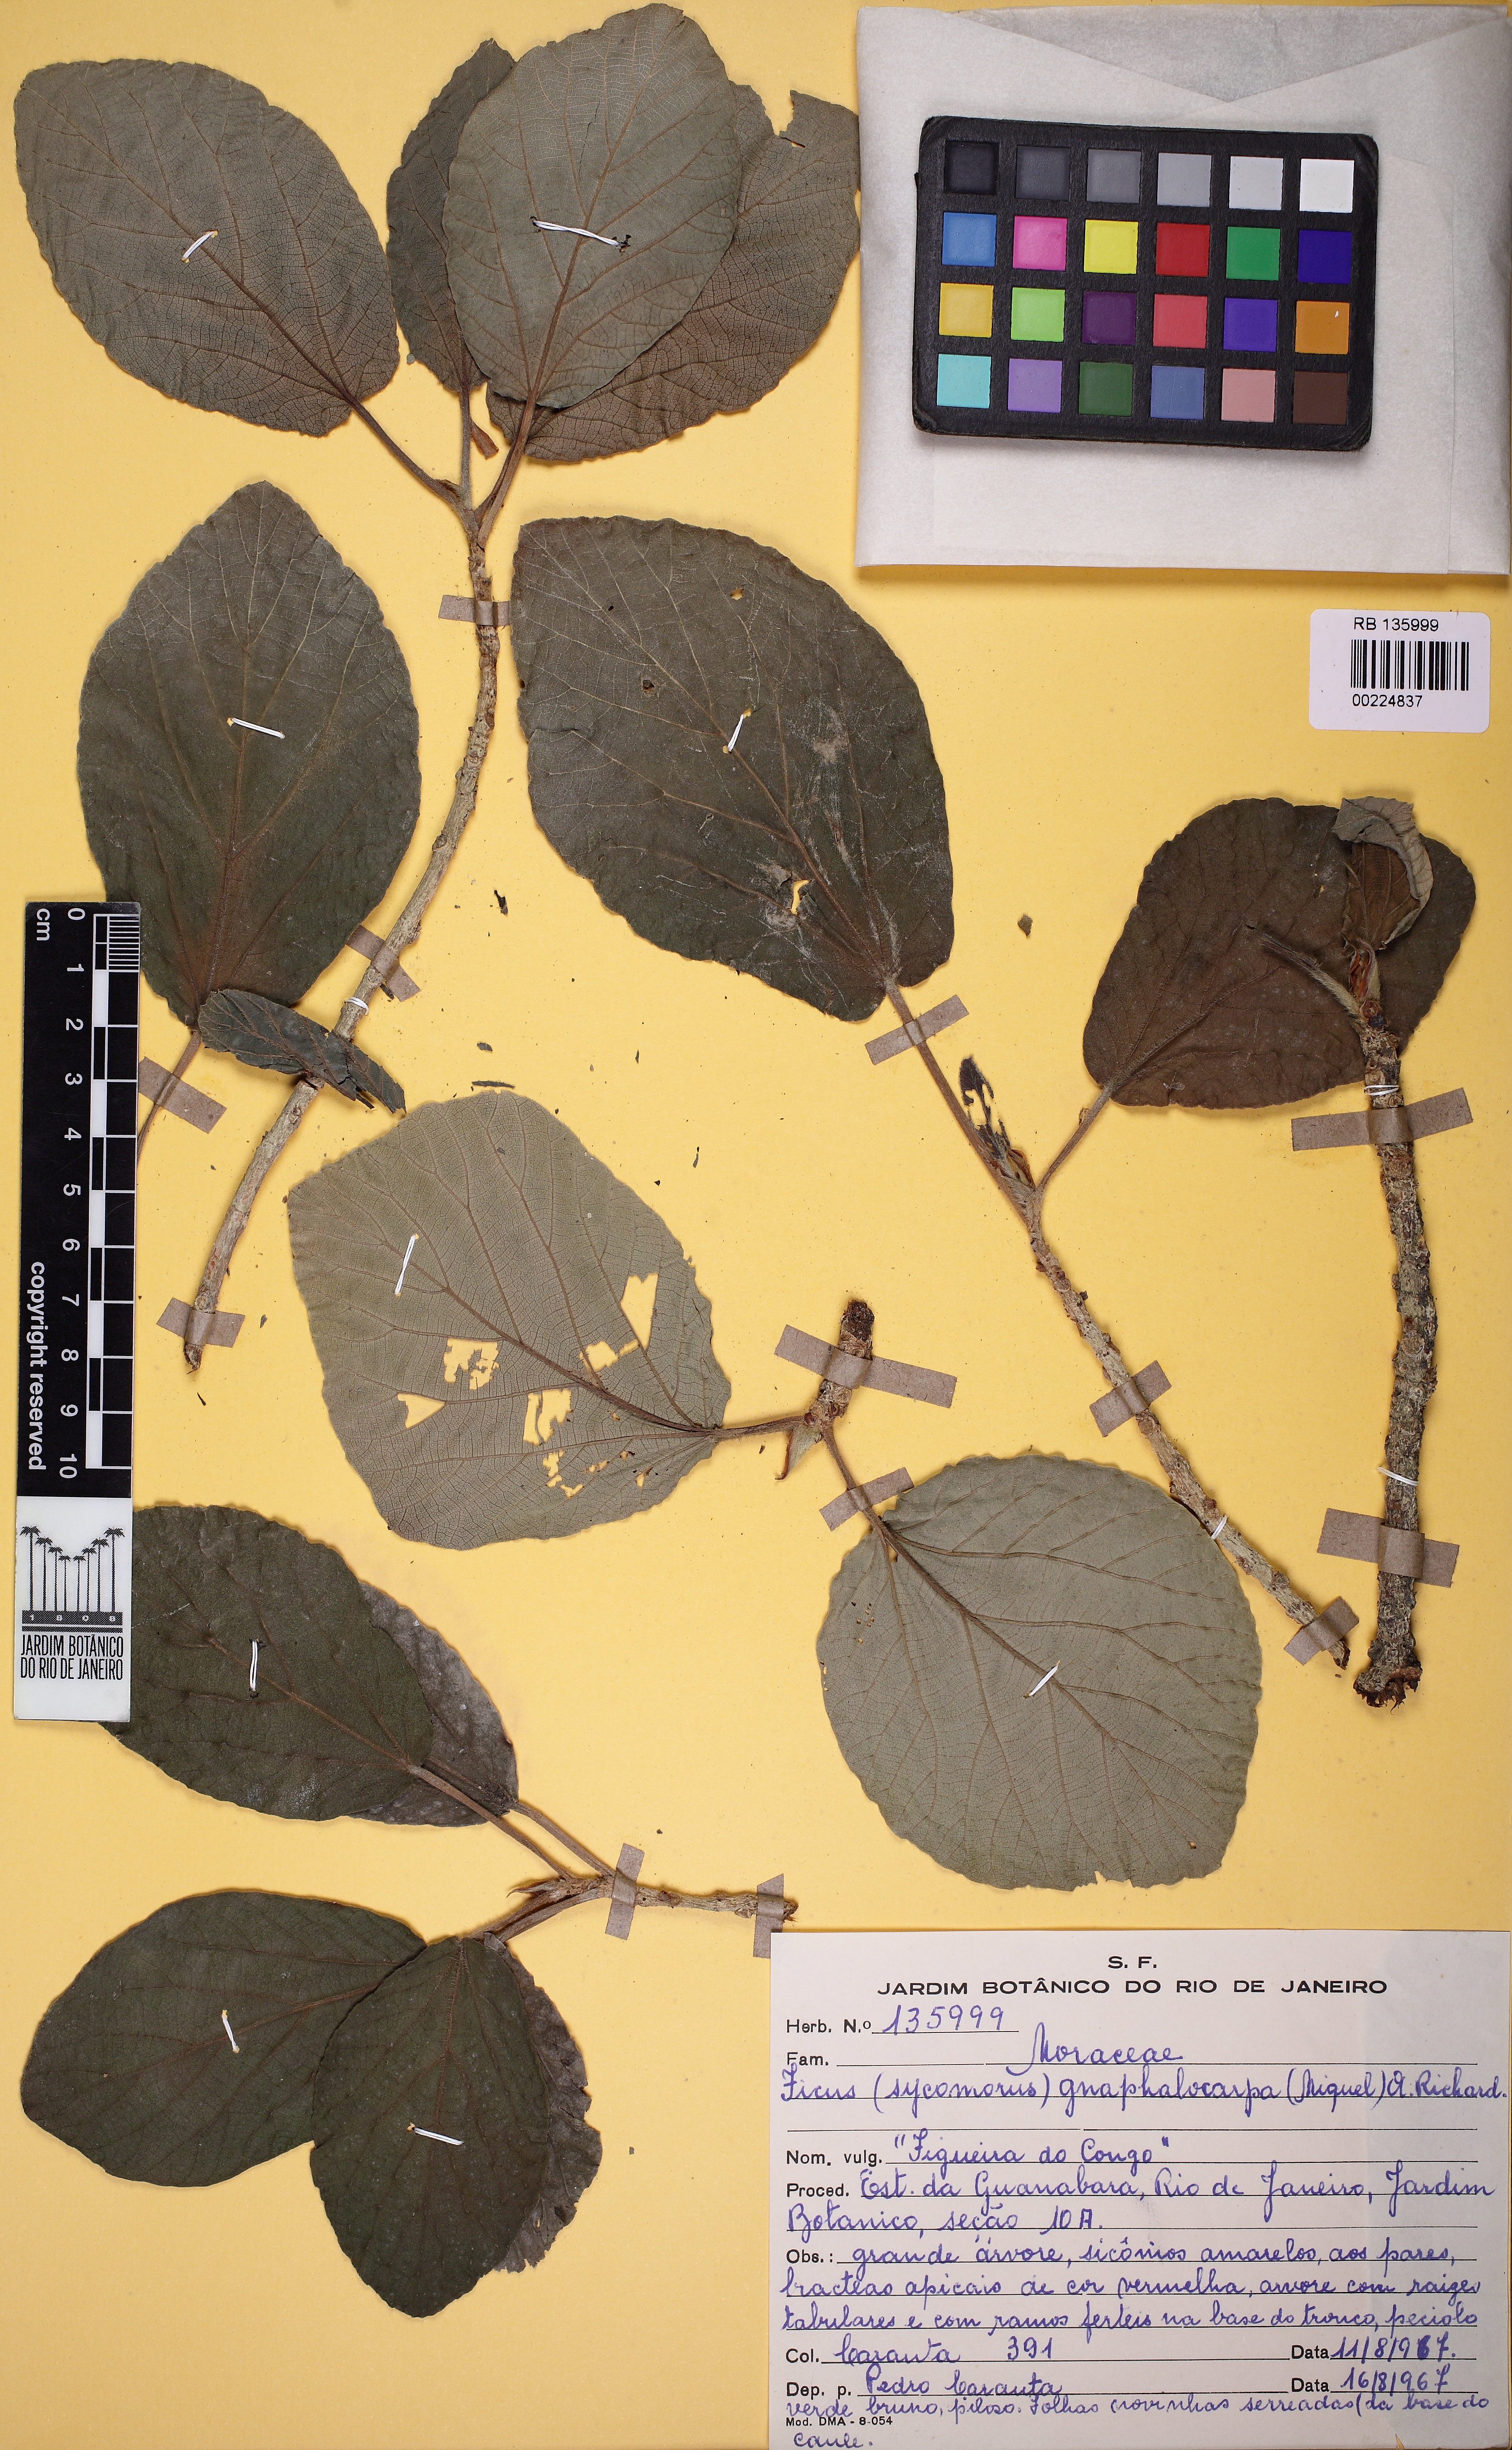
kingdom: Plantae
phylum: Tracheophyta
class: Magnoliopsida
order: Rosales
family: Moraceae
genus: Ficus
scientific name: Ficus sycomorus
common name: Sycomore
